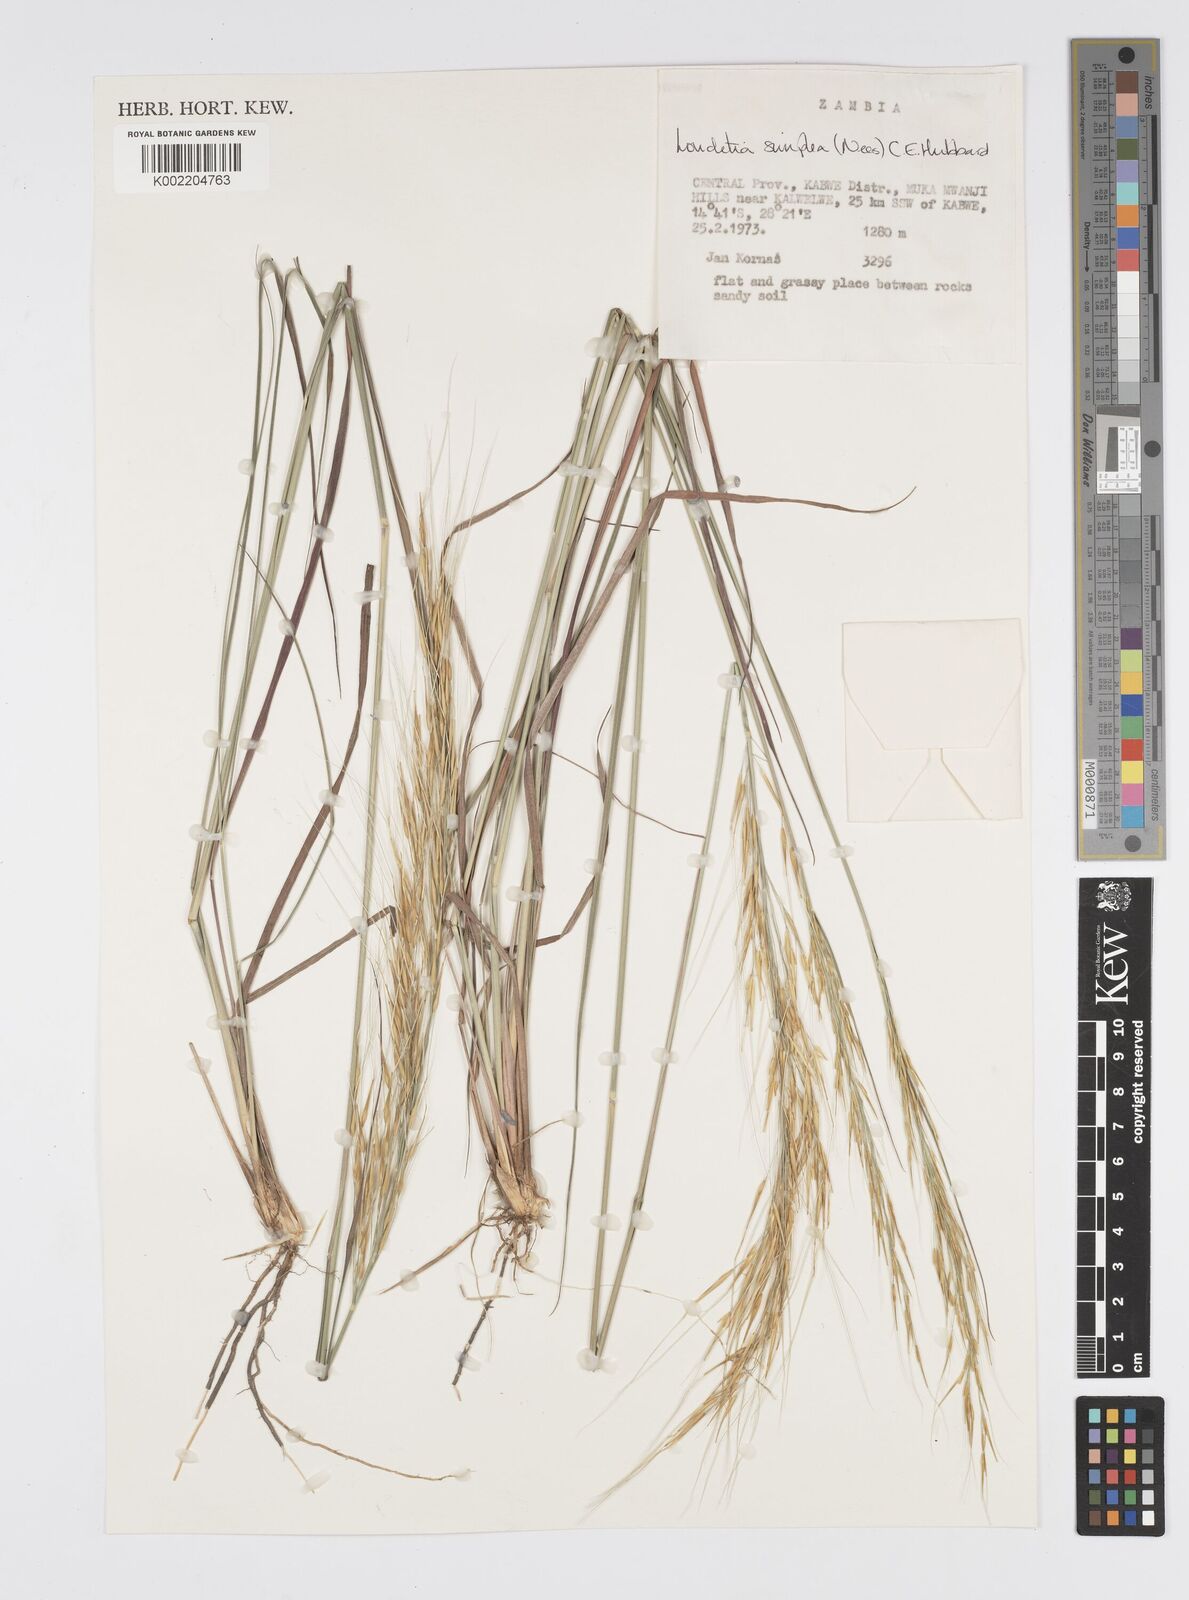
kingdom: Plantae
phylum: Tracheophyta
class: Liliopsida
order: Poales
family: Poaceae
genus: Loudetia
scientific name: Loudetia simplex
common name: Common russet grass
